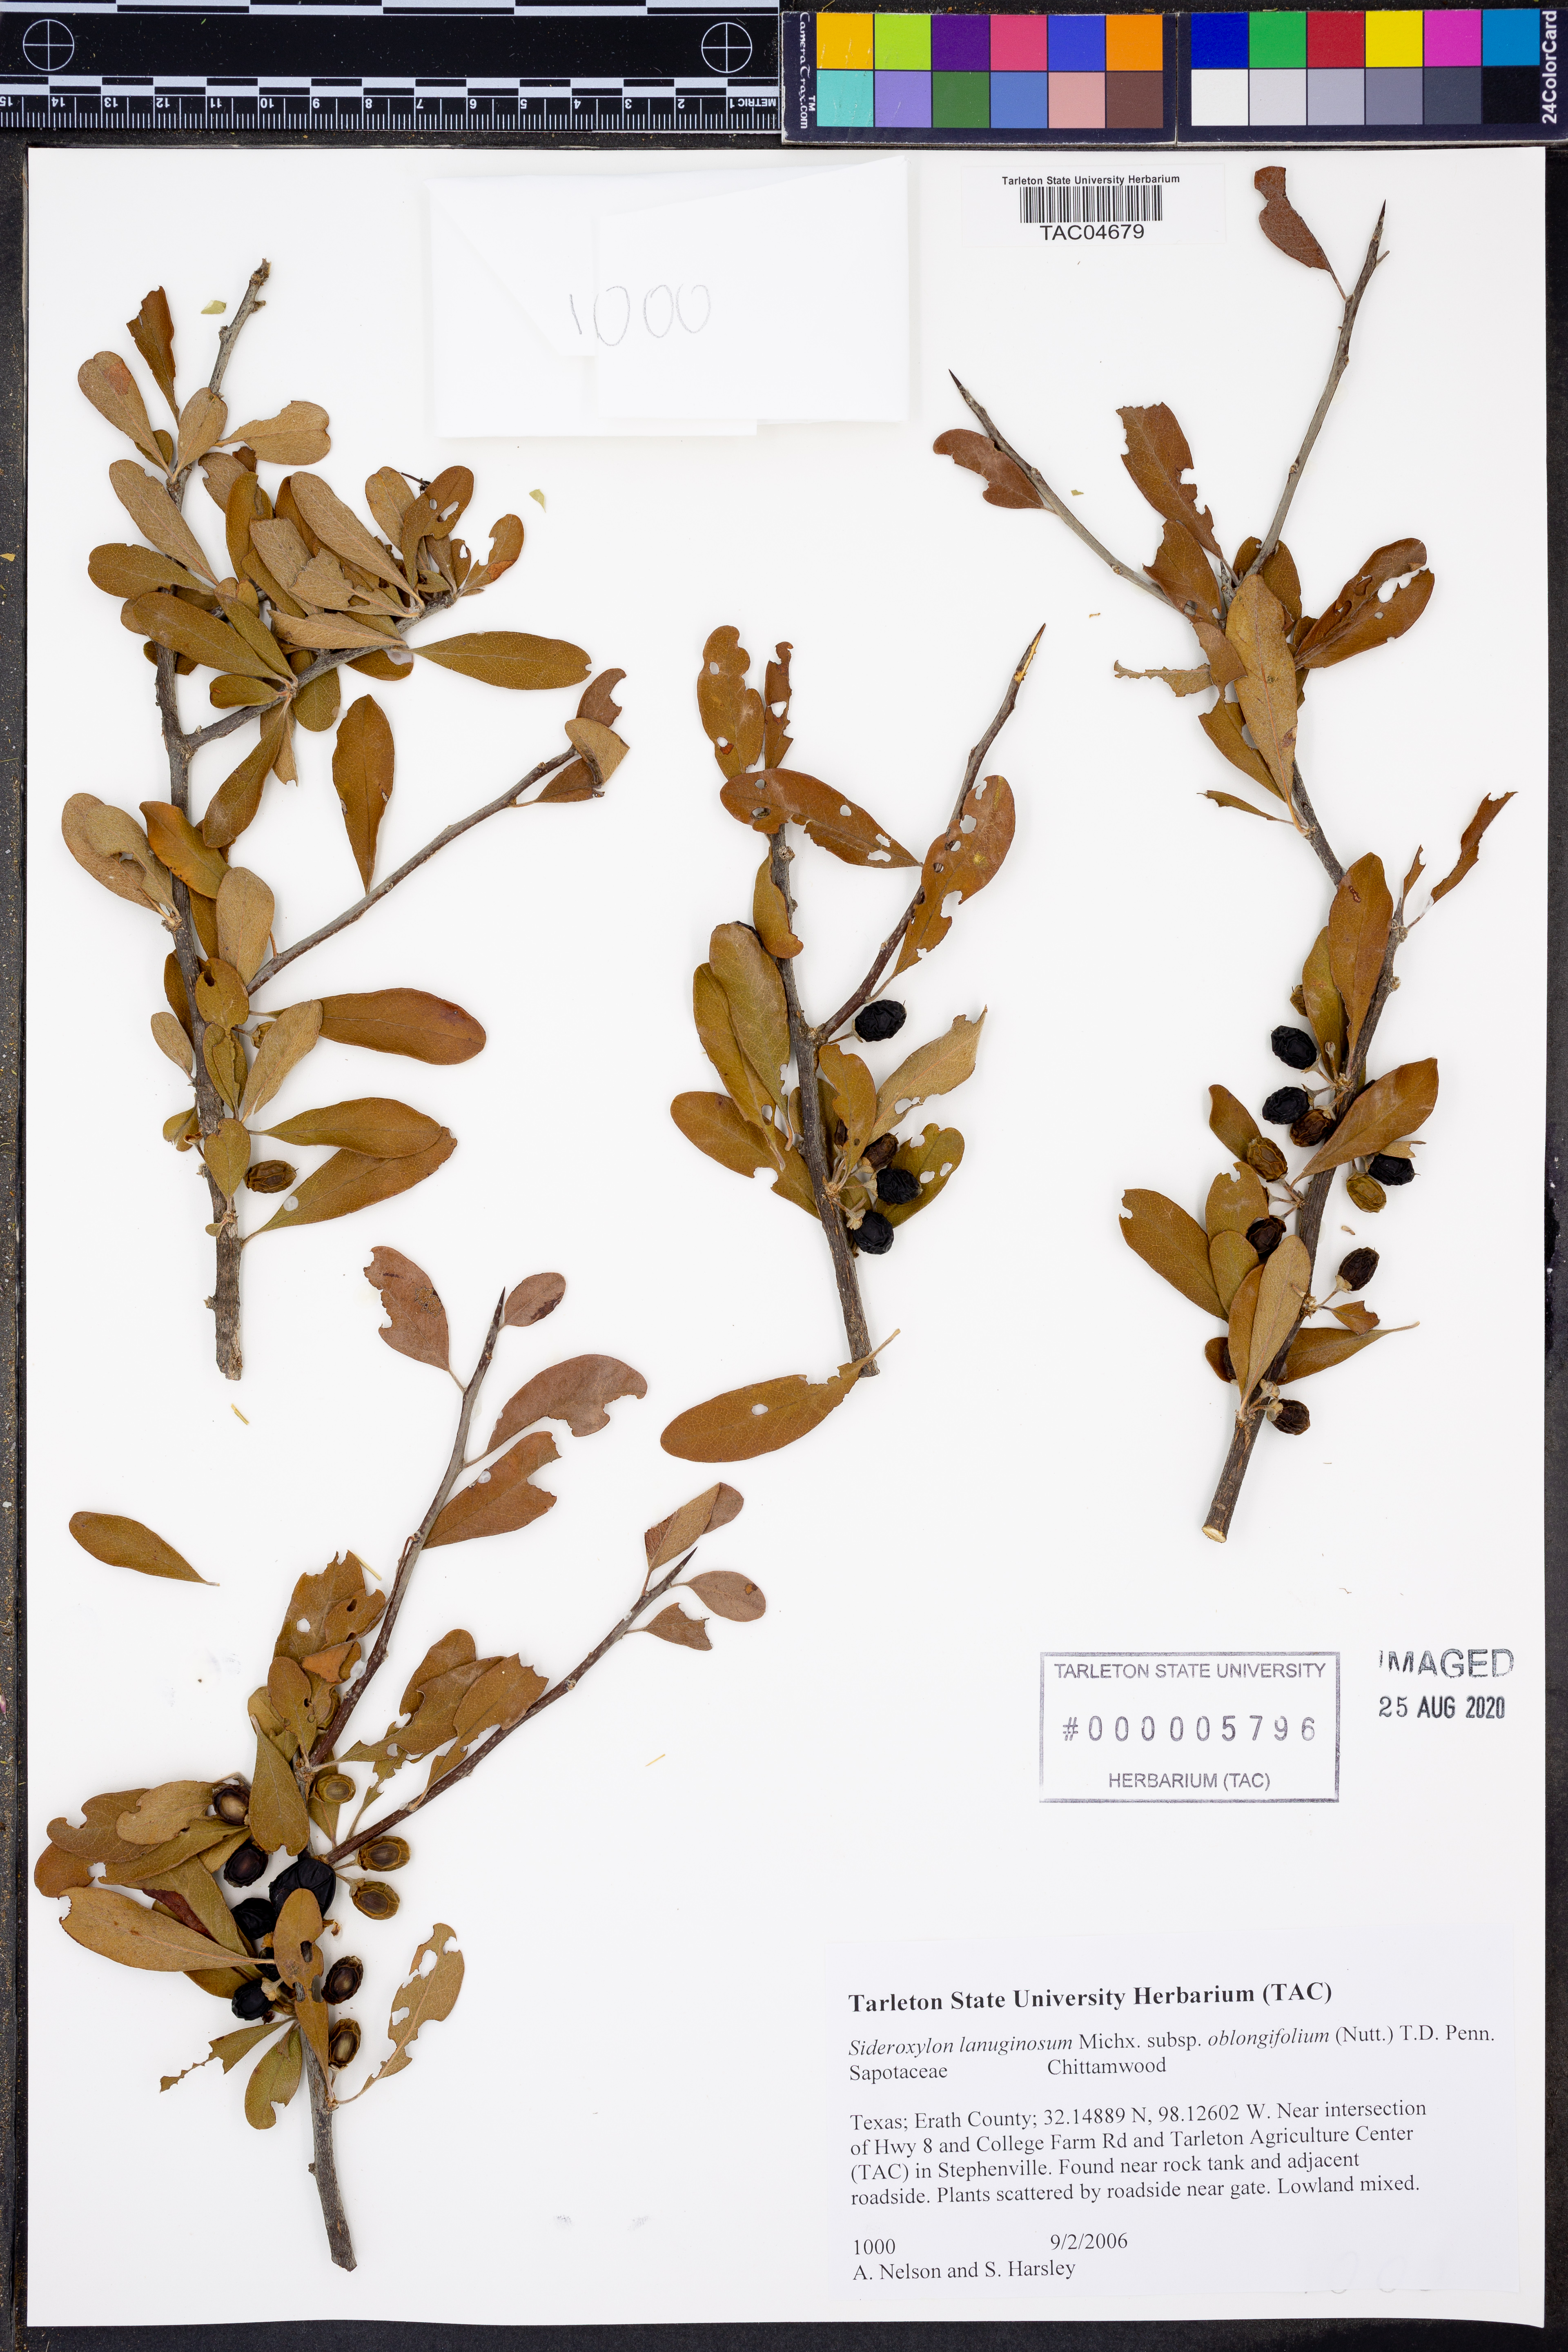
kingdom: Plantae
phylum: Tracheophyta
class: Magnoliopsida
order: Ericales
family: Sapotaceae
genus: Sideroxylon
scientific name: Sideroxylon lanuginosum
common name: Chittamwood
